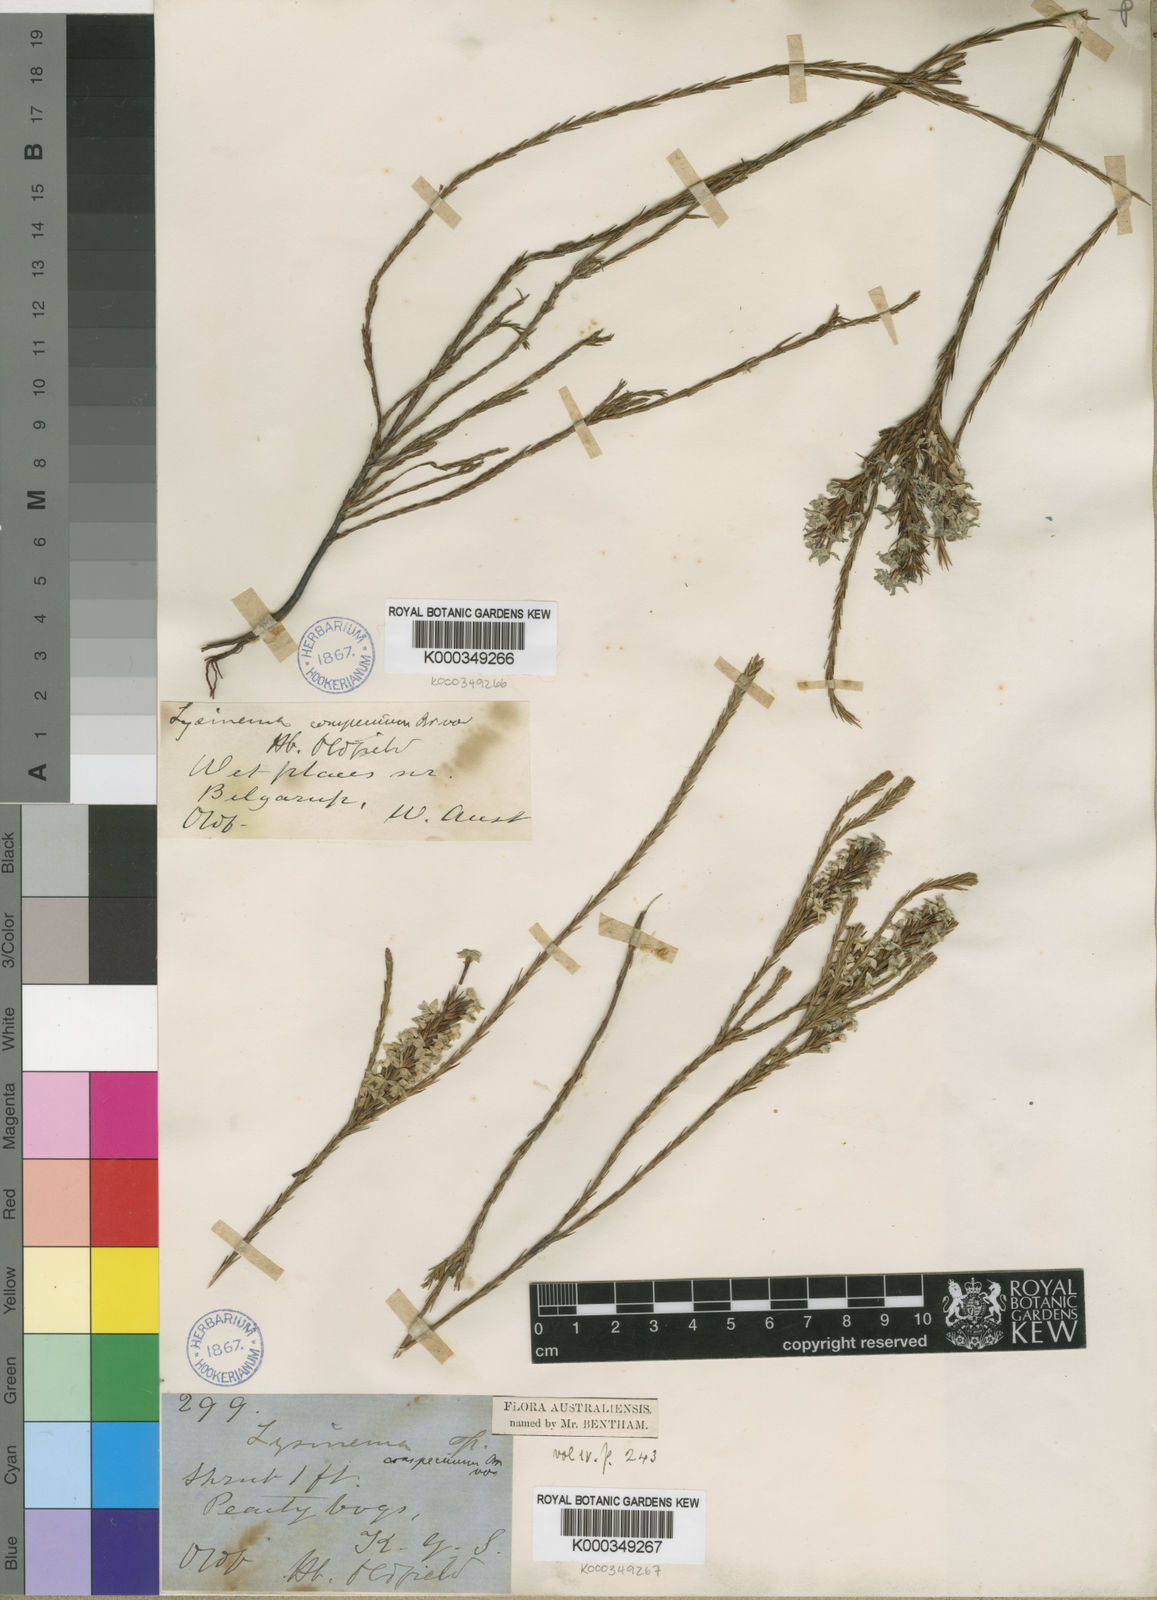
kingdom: Plantae
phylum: Tracheophyta
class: Magnoliopsida
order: Ericales
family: Ericaceae
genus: Lysinema
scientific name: Lysinema conspicuum
